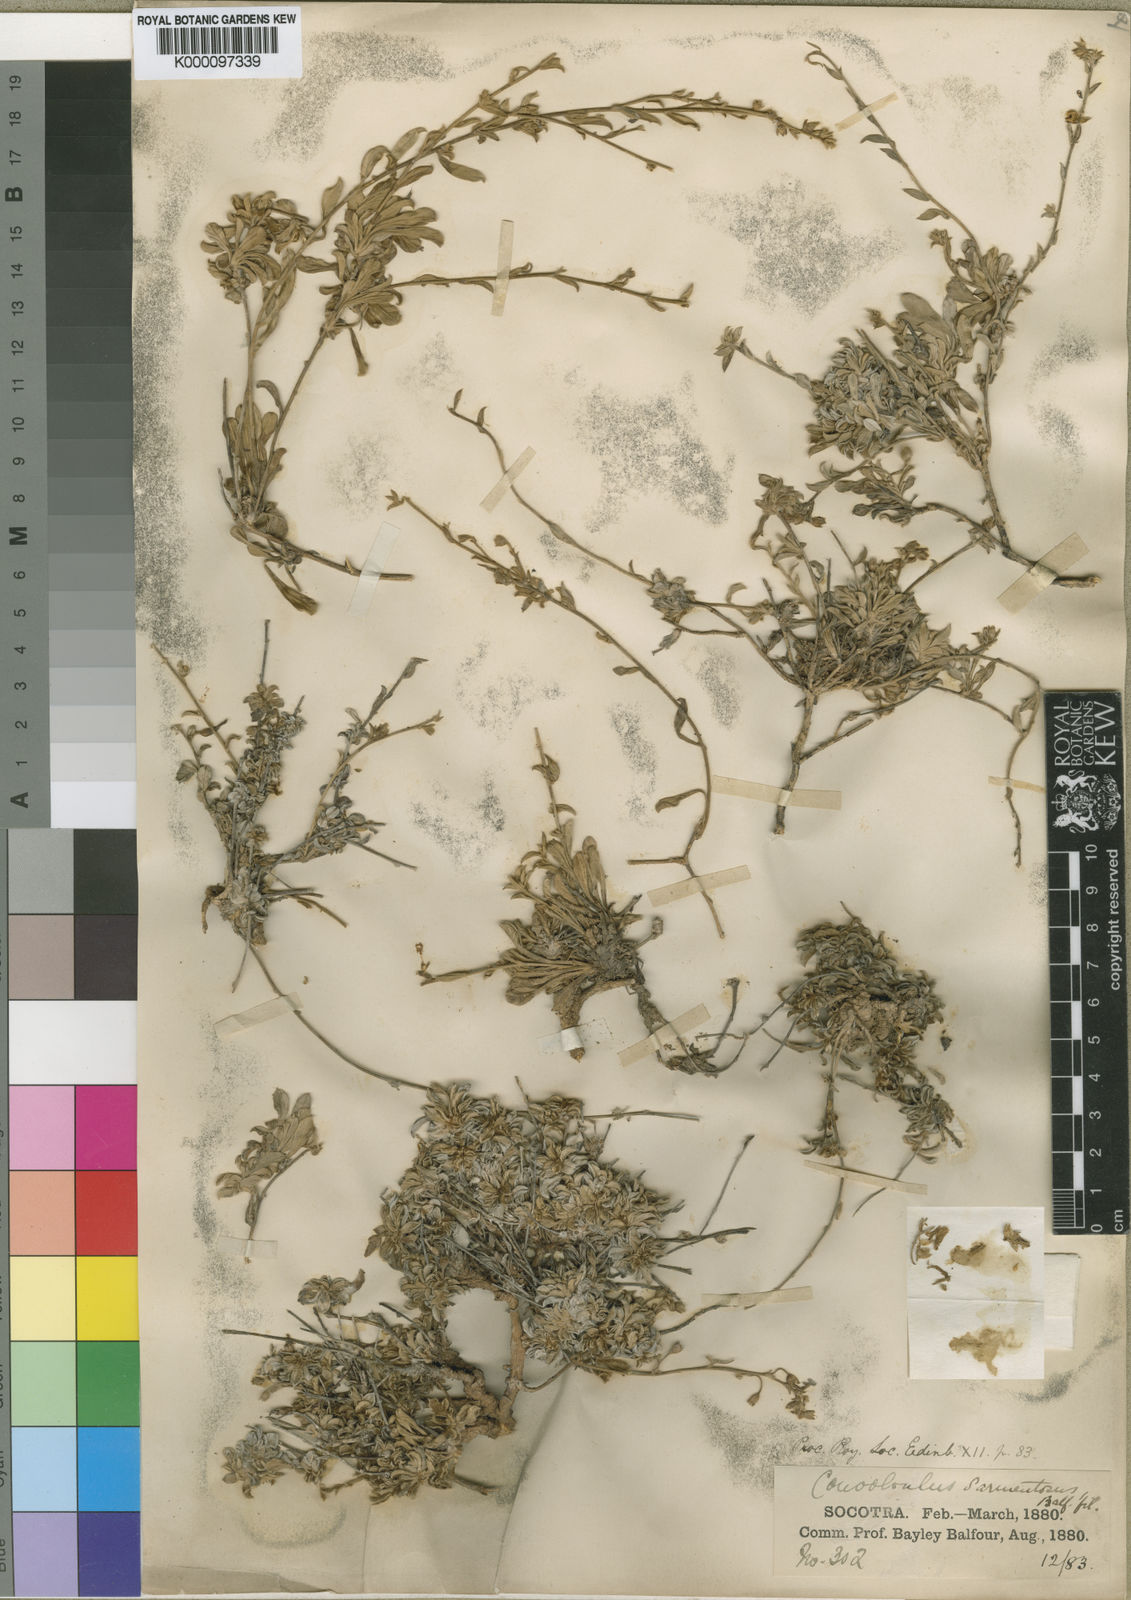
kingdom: Plantae
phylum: Tracheophyta
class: Magnoliopsida
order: Solanales
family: Convolvulaceae
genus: Convolvulus
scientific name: Convolvulus sarmentosus
